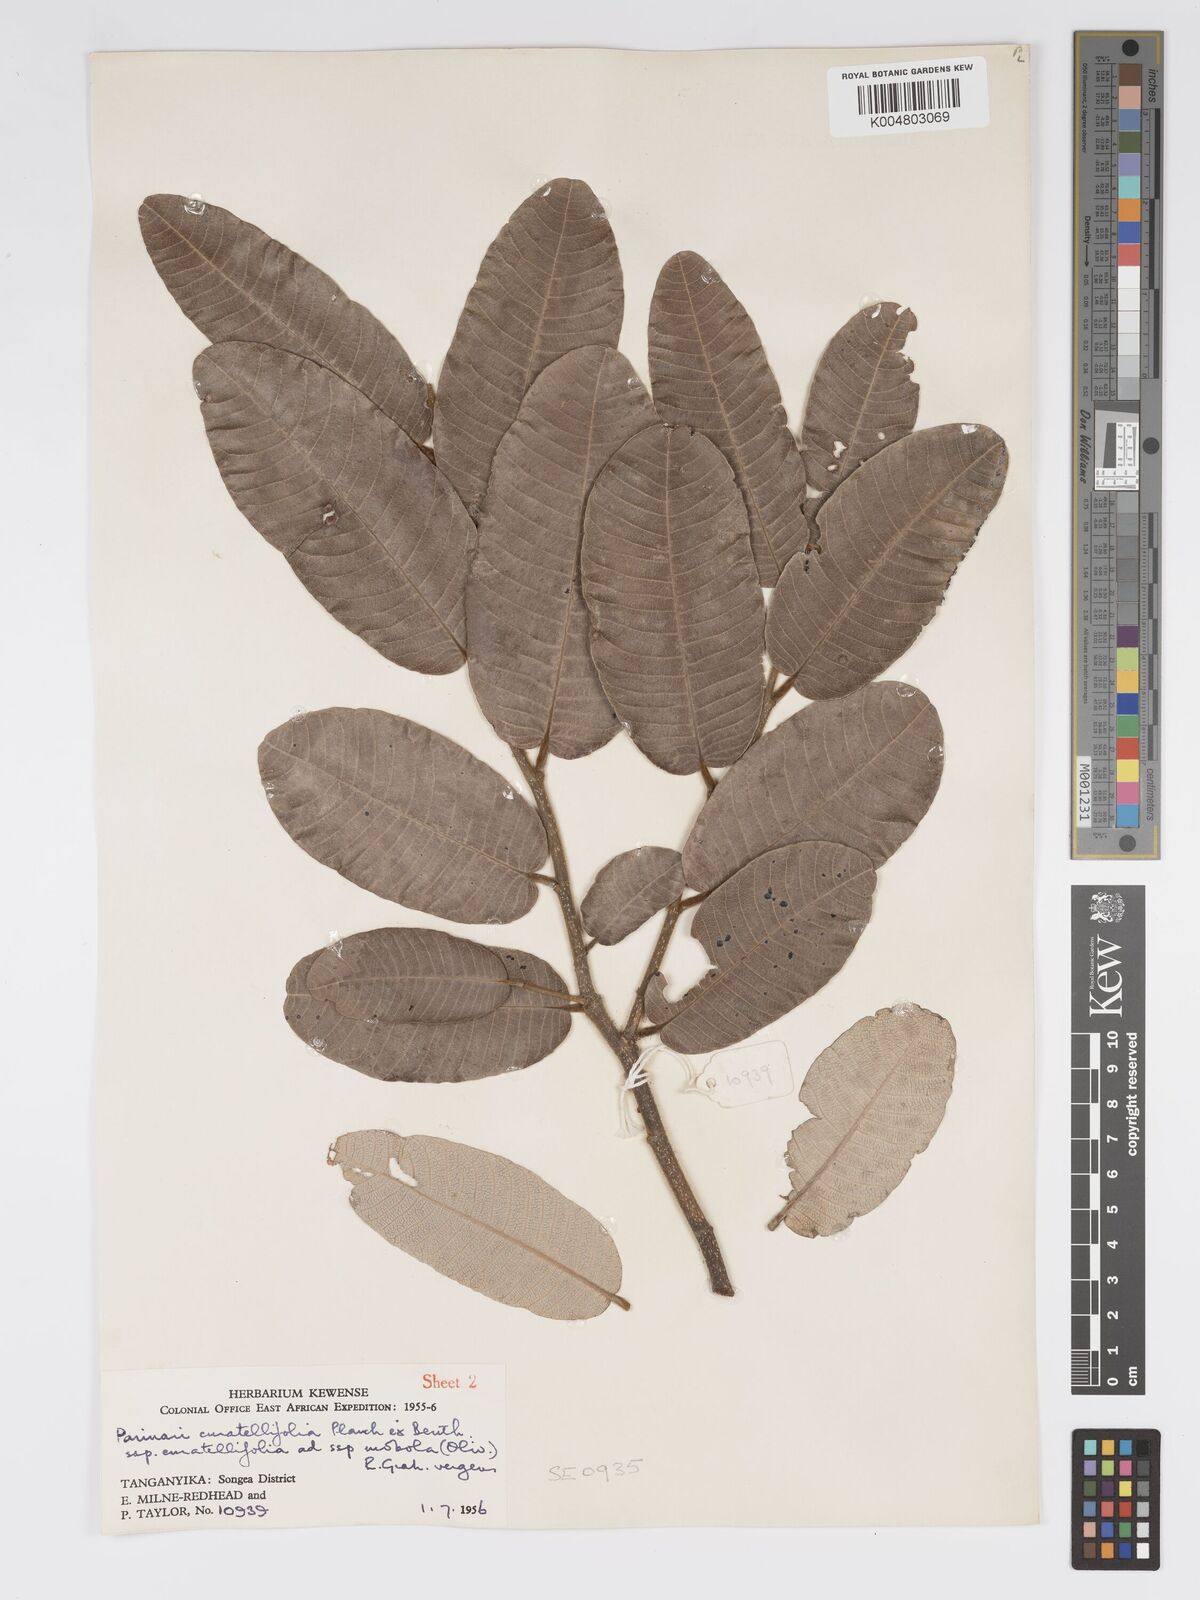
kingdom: Plantae
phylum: Tracheophyta
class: Magnoliopsida
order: Malpighiales
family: Chrysobalanaceae
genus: Parinari
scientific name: Parinari curatellifolia
